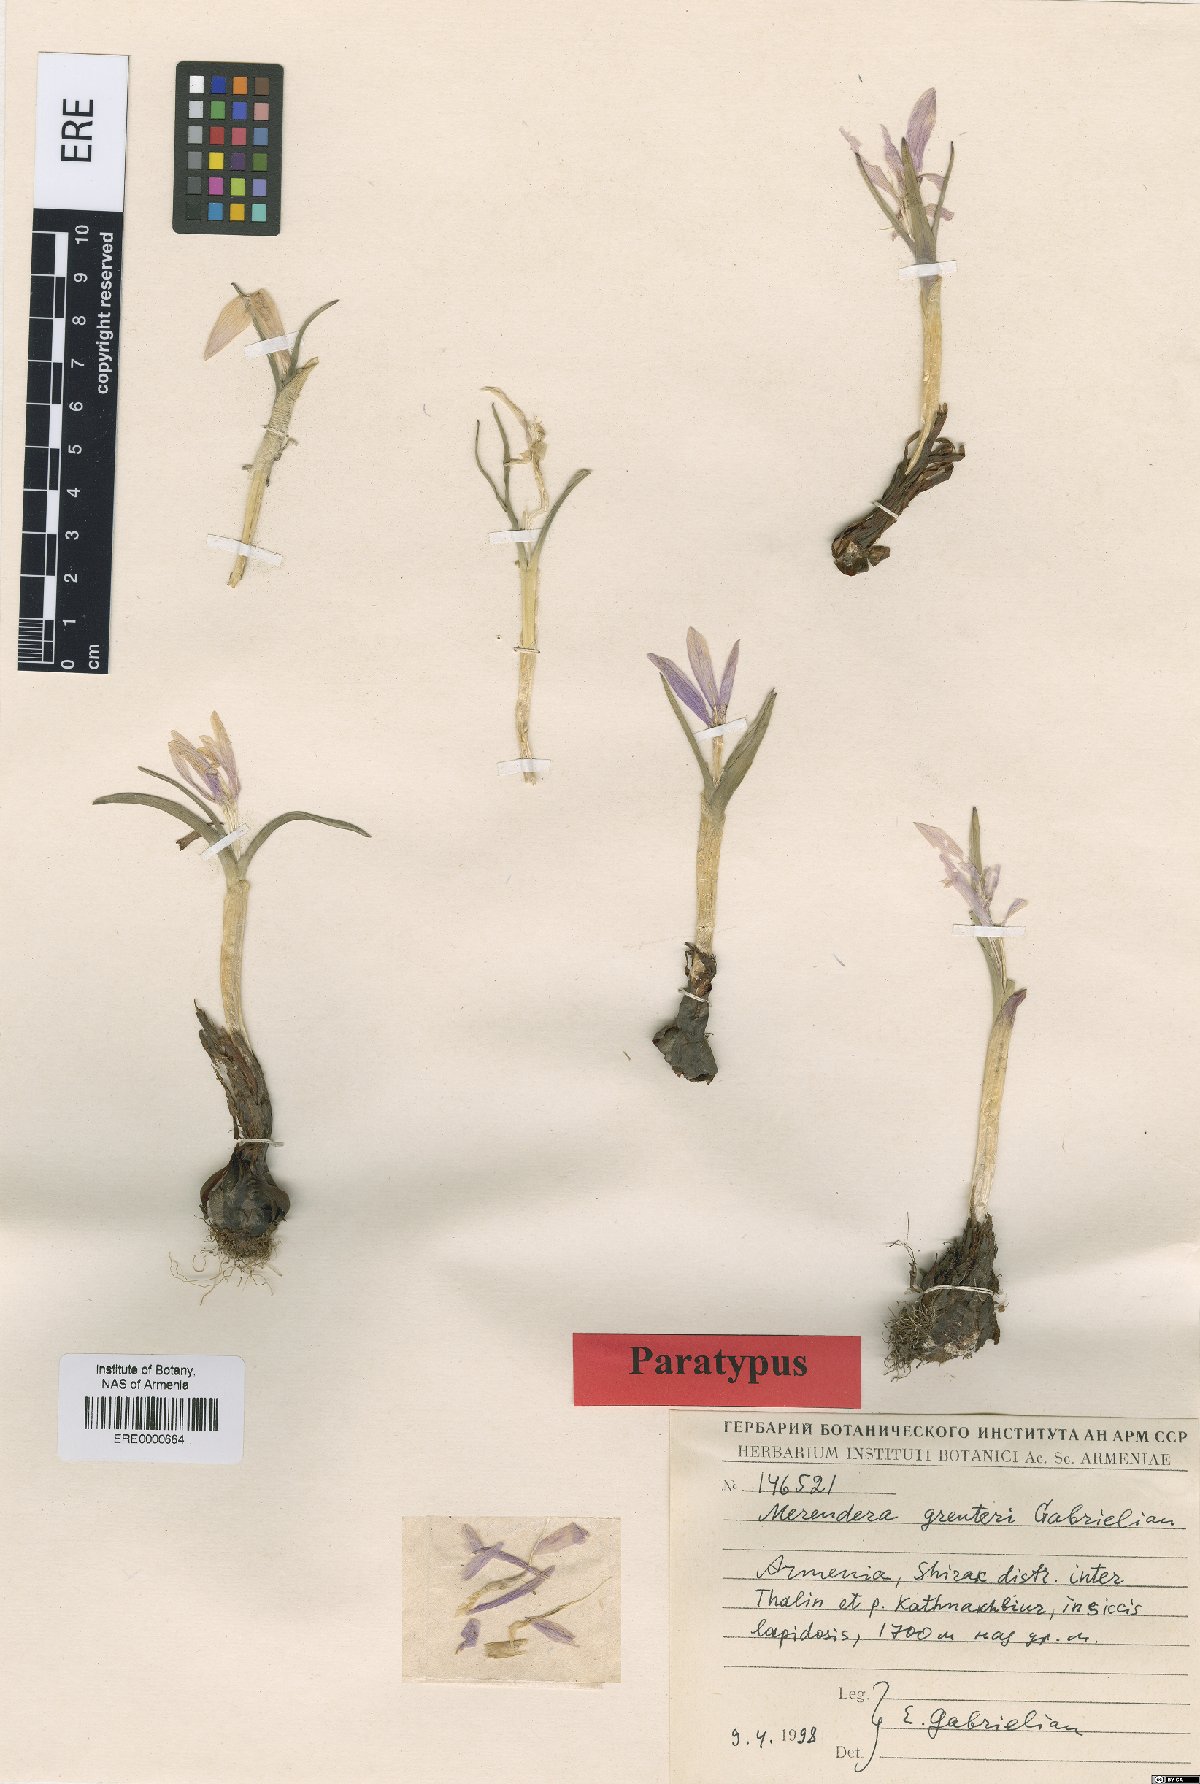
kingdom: Plantae
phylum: Tracheophyta
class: Liliopsida
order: Liliales
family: Colchicaceae
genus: Colchicum
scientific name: Colchicum trigynum
